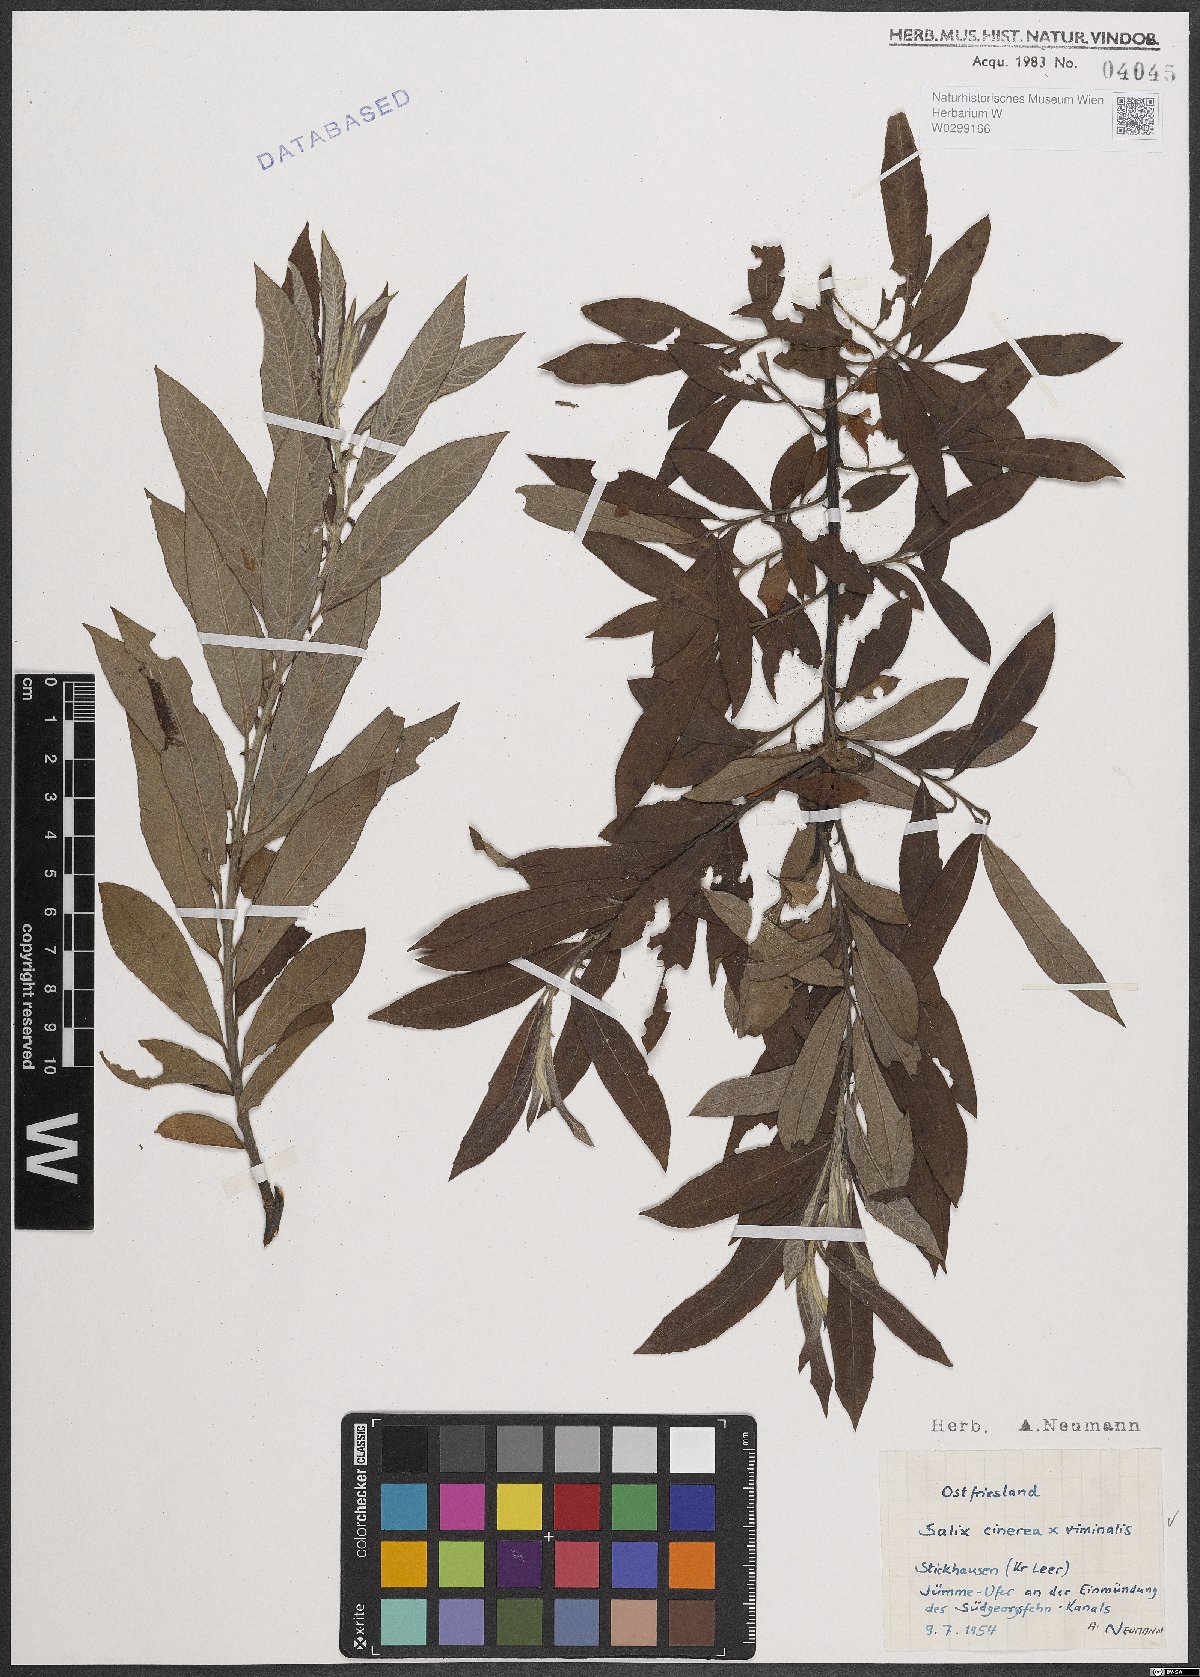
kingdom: Plantae
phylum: Tracheophyta
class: Magnoliopsida
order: Malpighiales
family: Salicaceae
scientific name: Salicaceae
